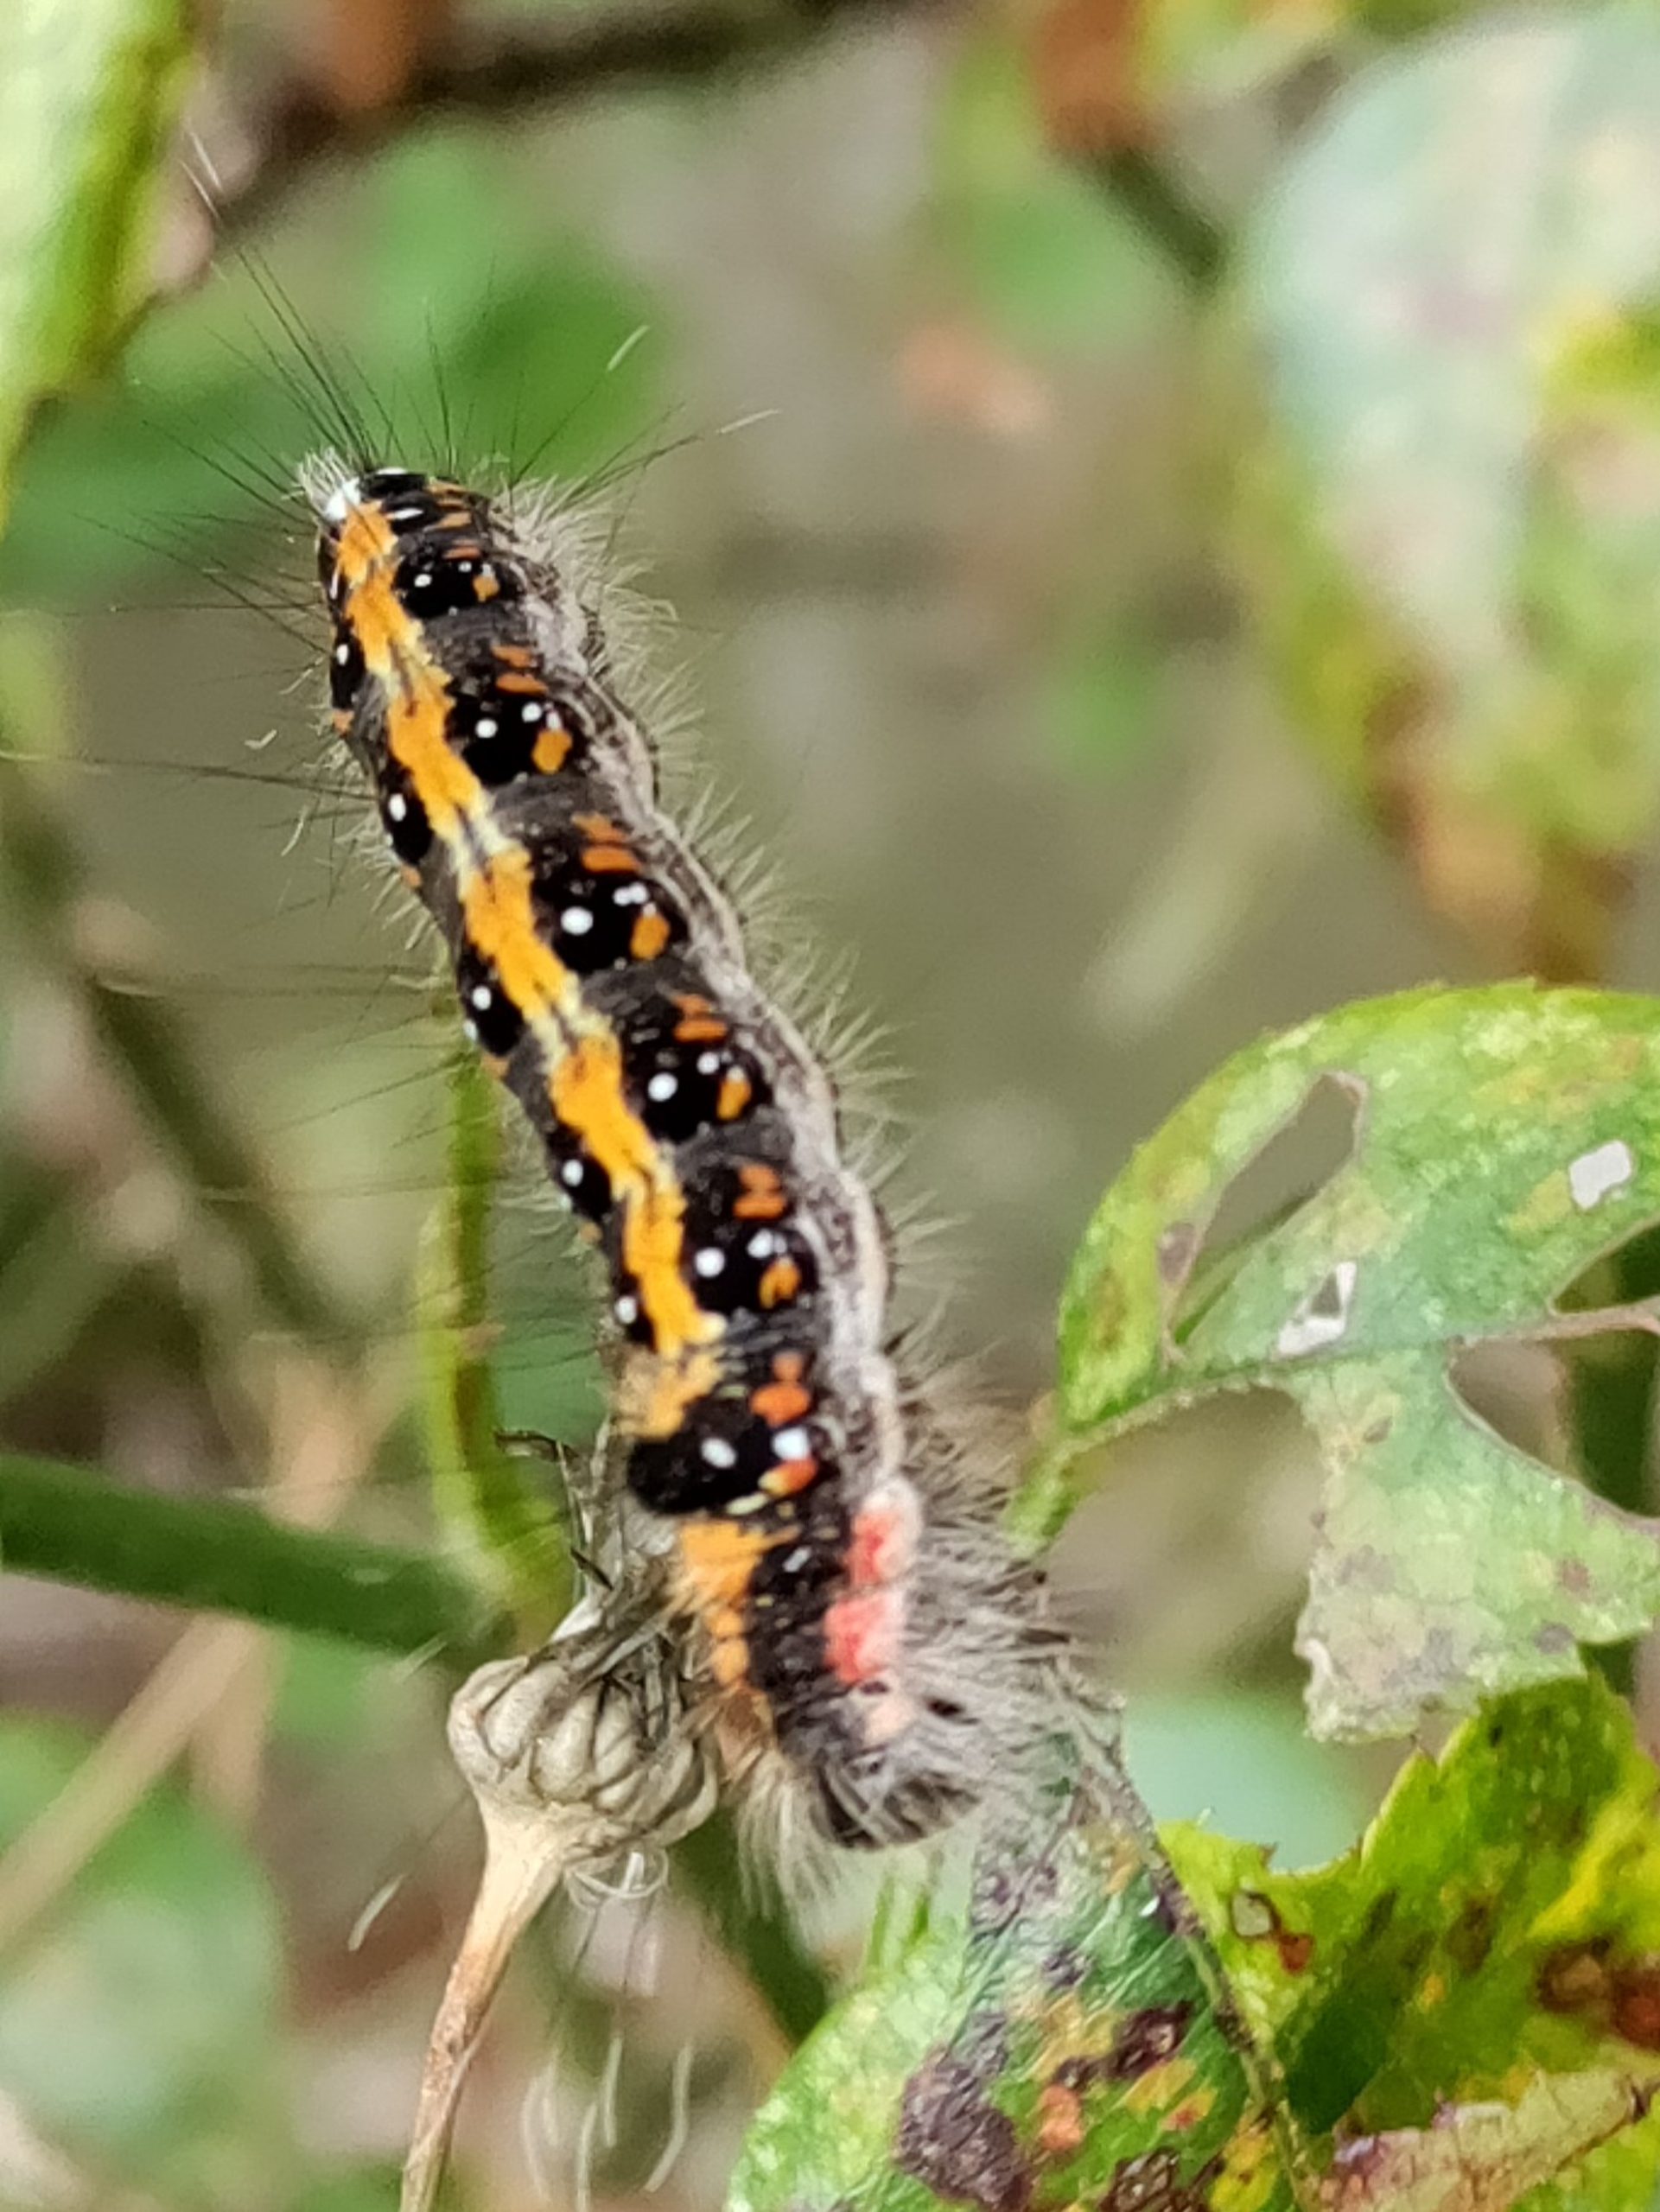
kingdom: Animalia
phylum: Arthropoda
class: Insecta
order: Lepidoptera
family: Noctuidae
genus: Acronicta
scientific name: Acronicta tridens
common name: Treforkugle
